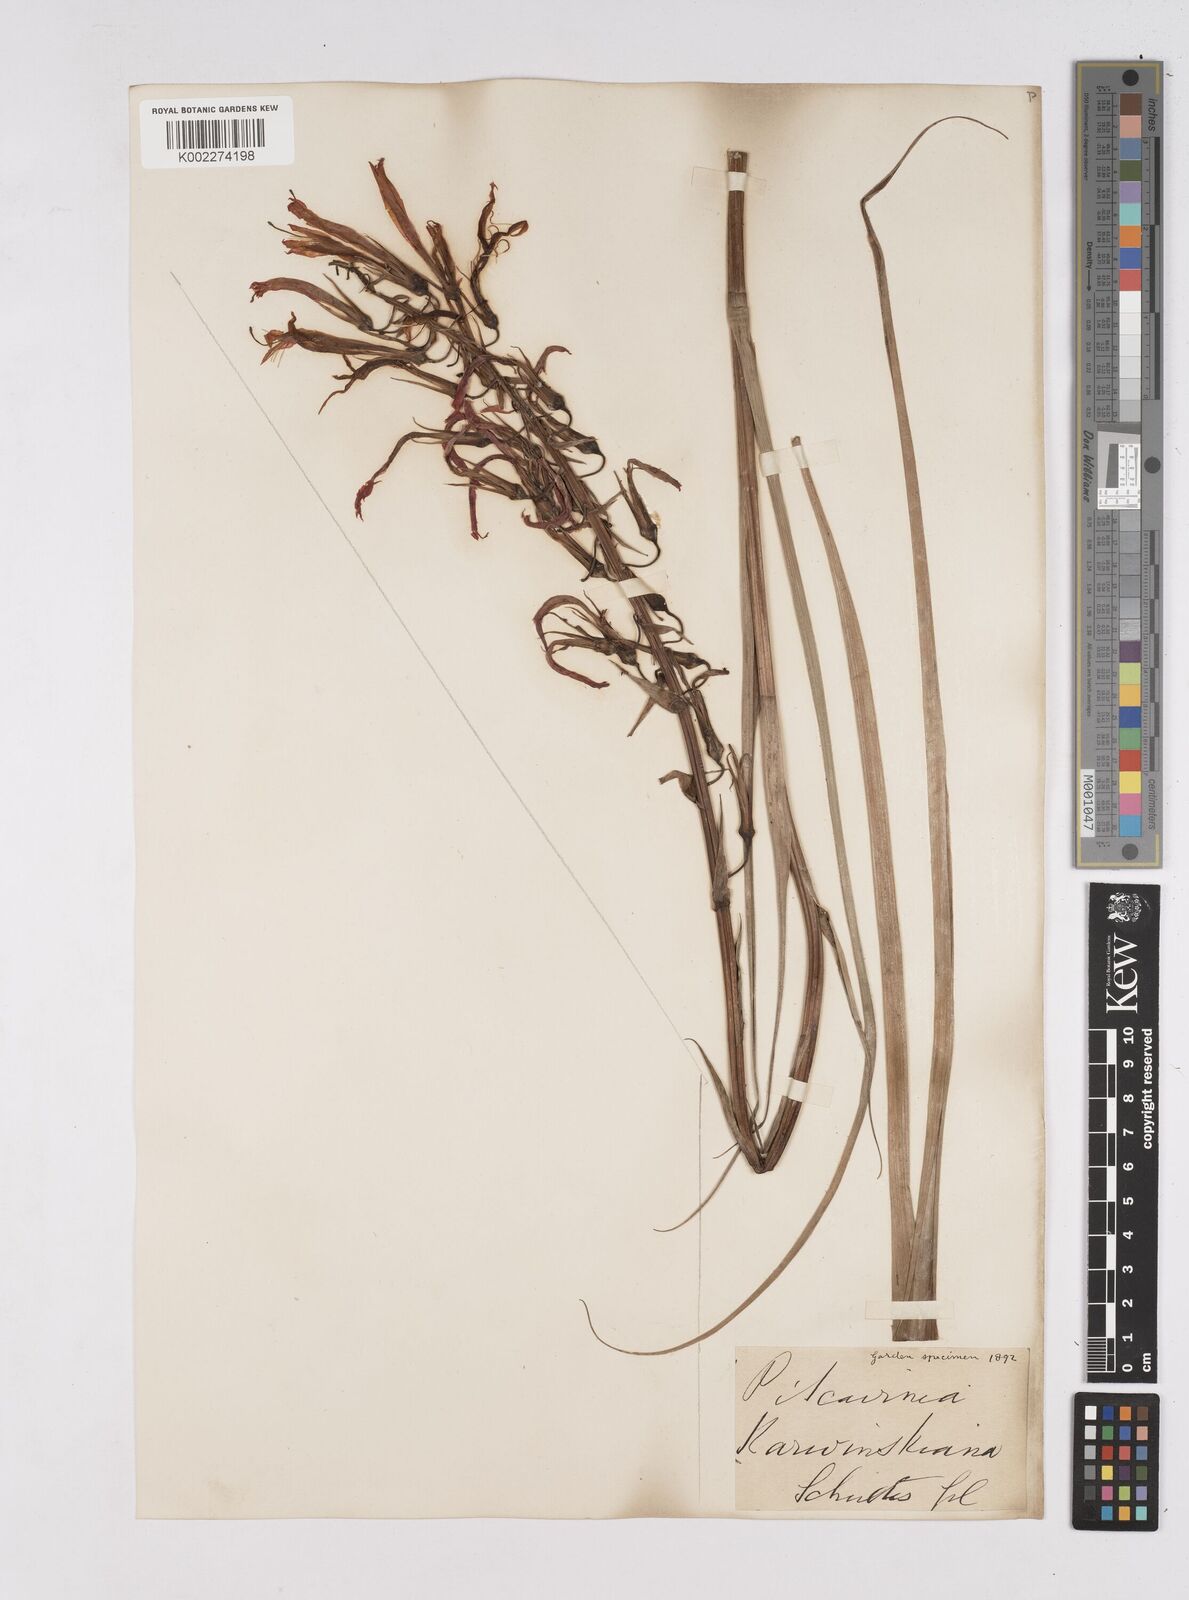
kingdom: Plantae
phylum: Tracheophyta
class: Liliopsida
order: Poales
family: Bromeliaceae
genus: Pitcairnia
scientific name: Pitcairnia ringens
